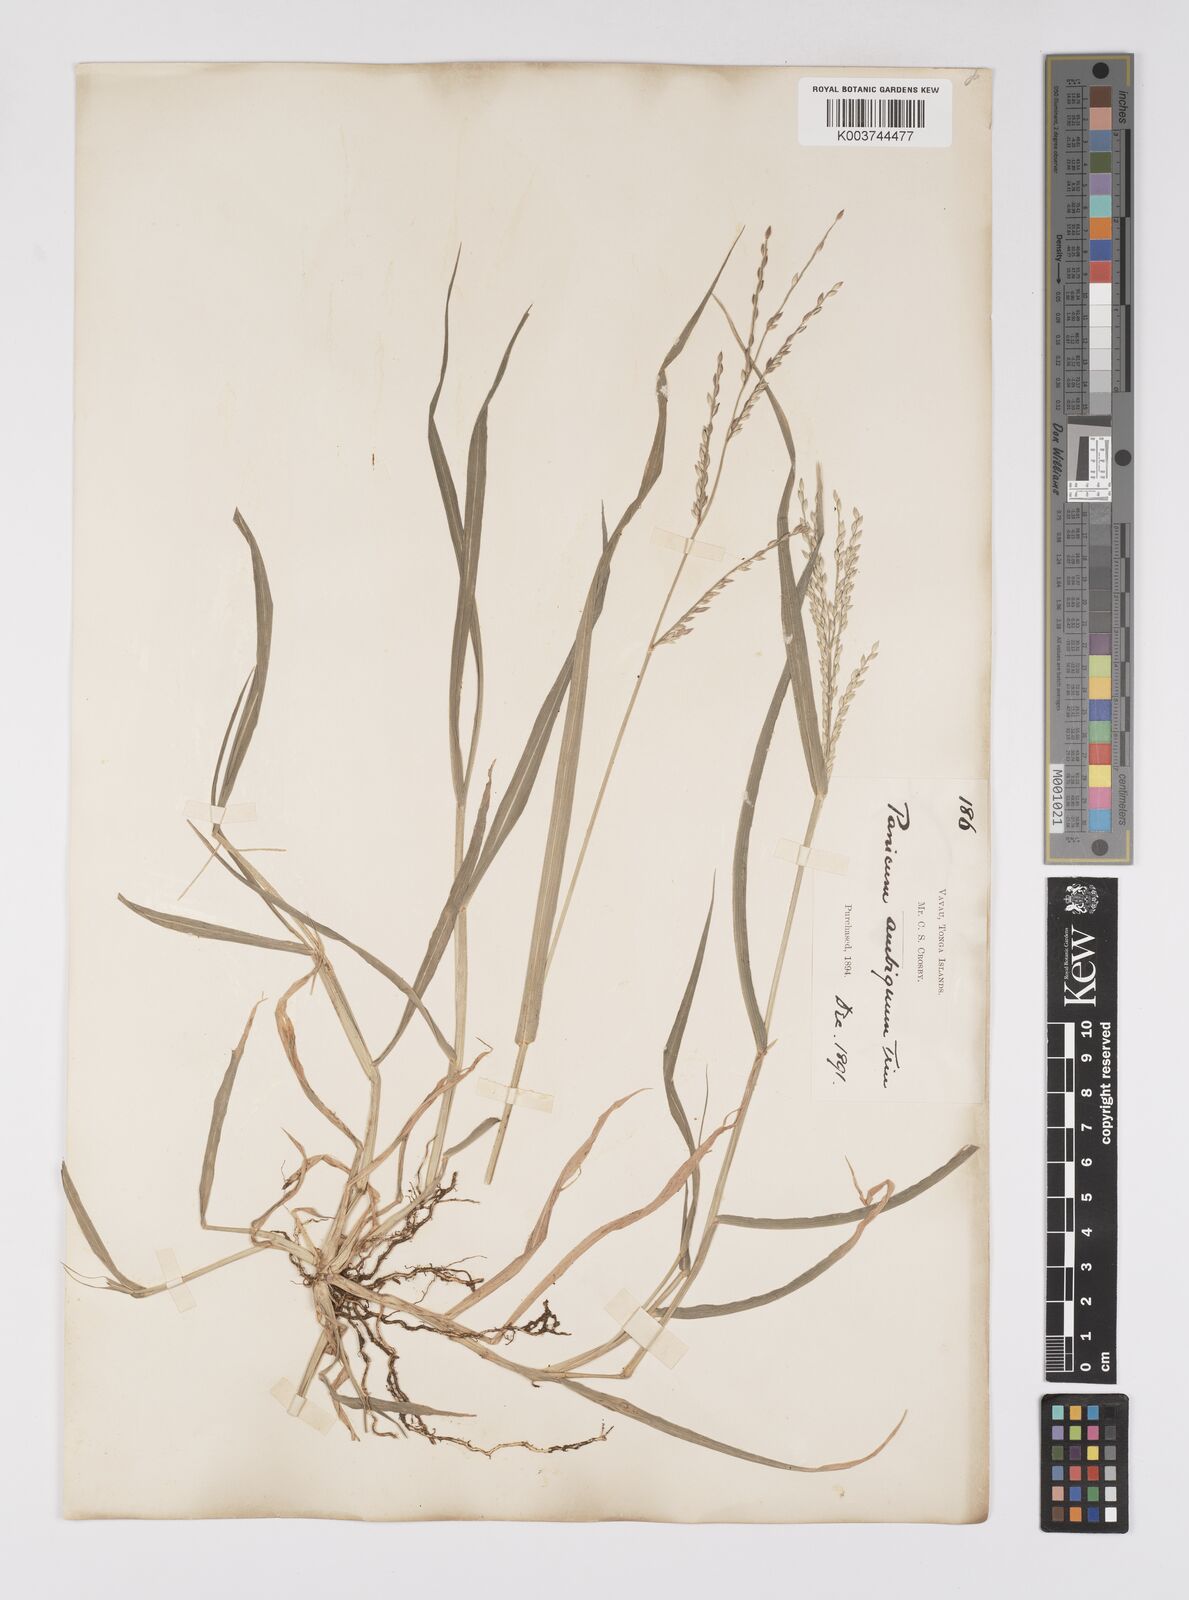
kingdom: Plantae
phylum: Tracheophyta
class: Liliopsida
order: Poales
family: Poaceae
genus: Urochloa
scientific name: Urochloa glumaris
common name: Thurston grass
